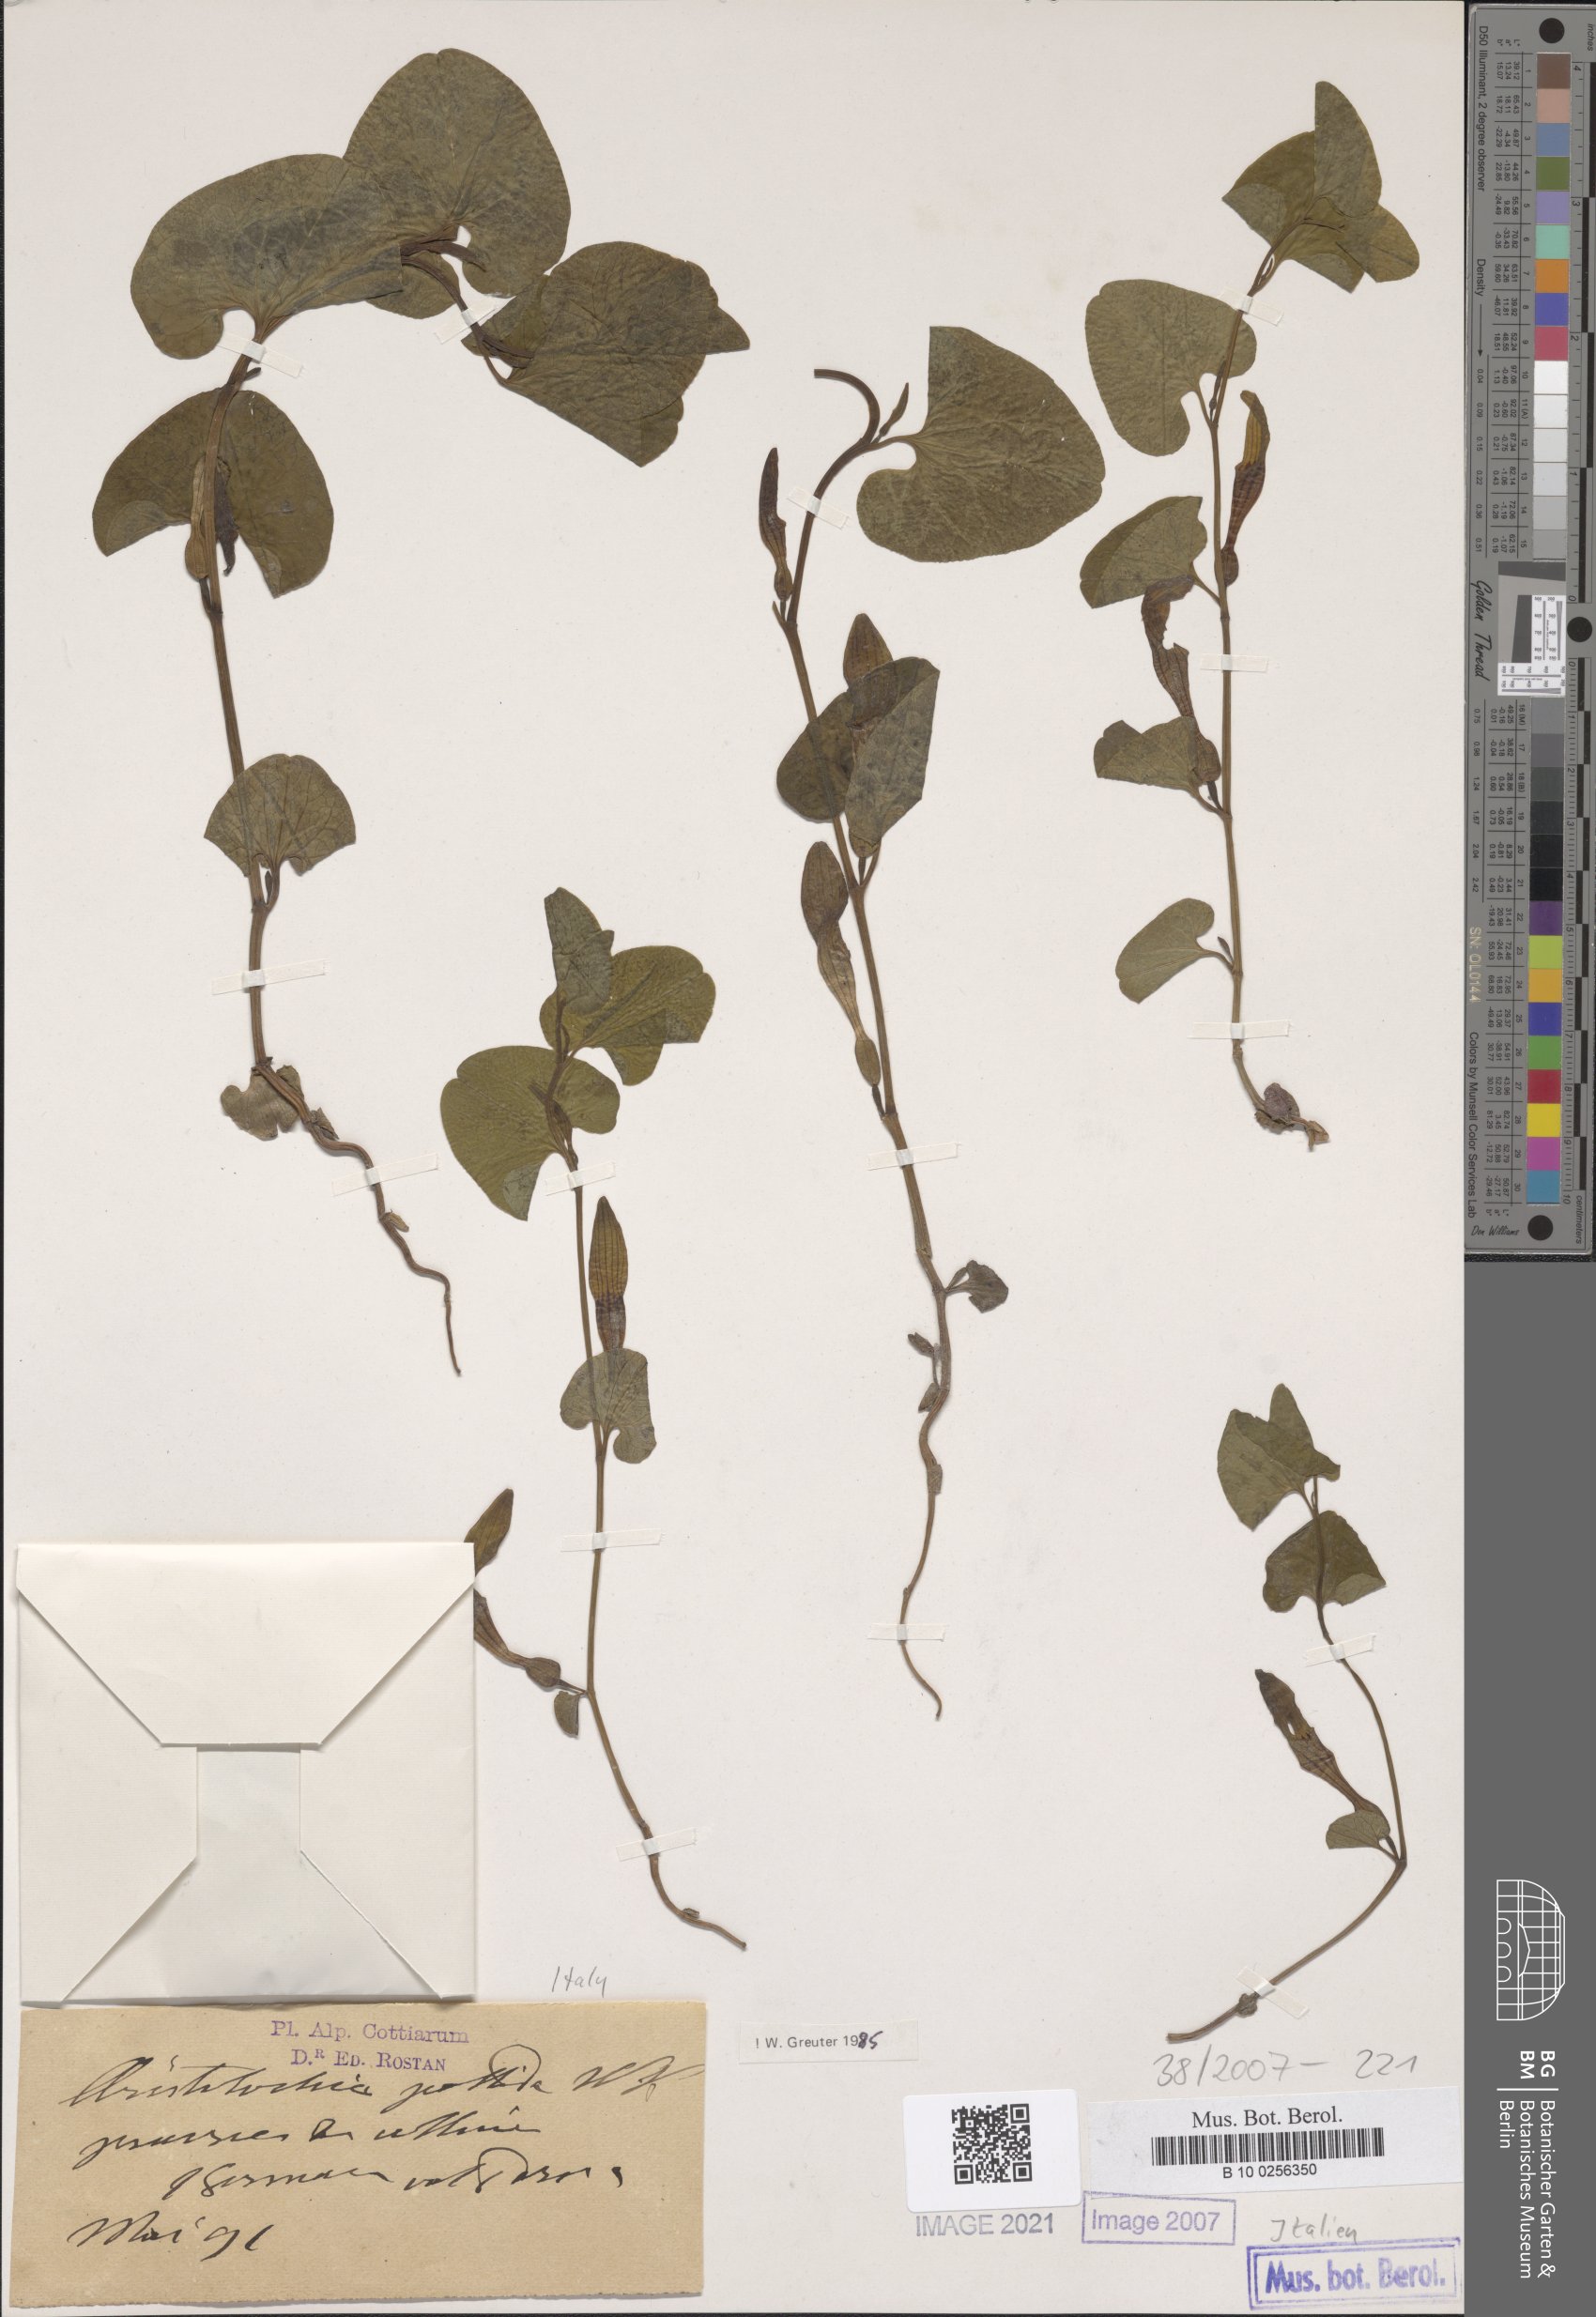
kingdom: Plantae
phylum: Tracheophyta
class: Magnoliopsida
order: Piperales
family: Aristolochiaceae
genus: Aristolochia
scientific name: Aristolochia pallida
